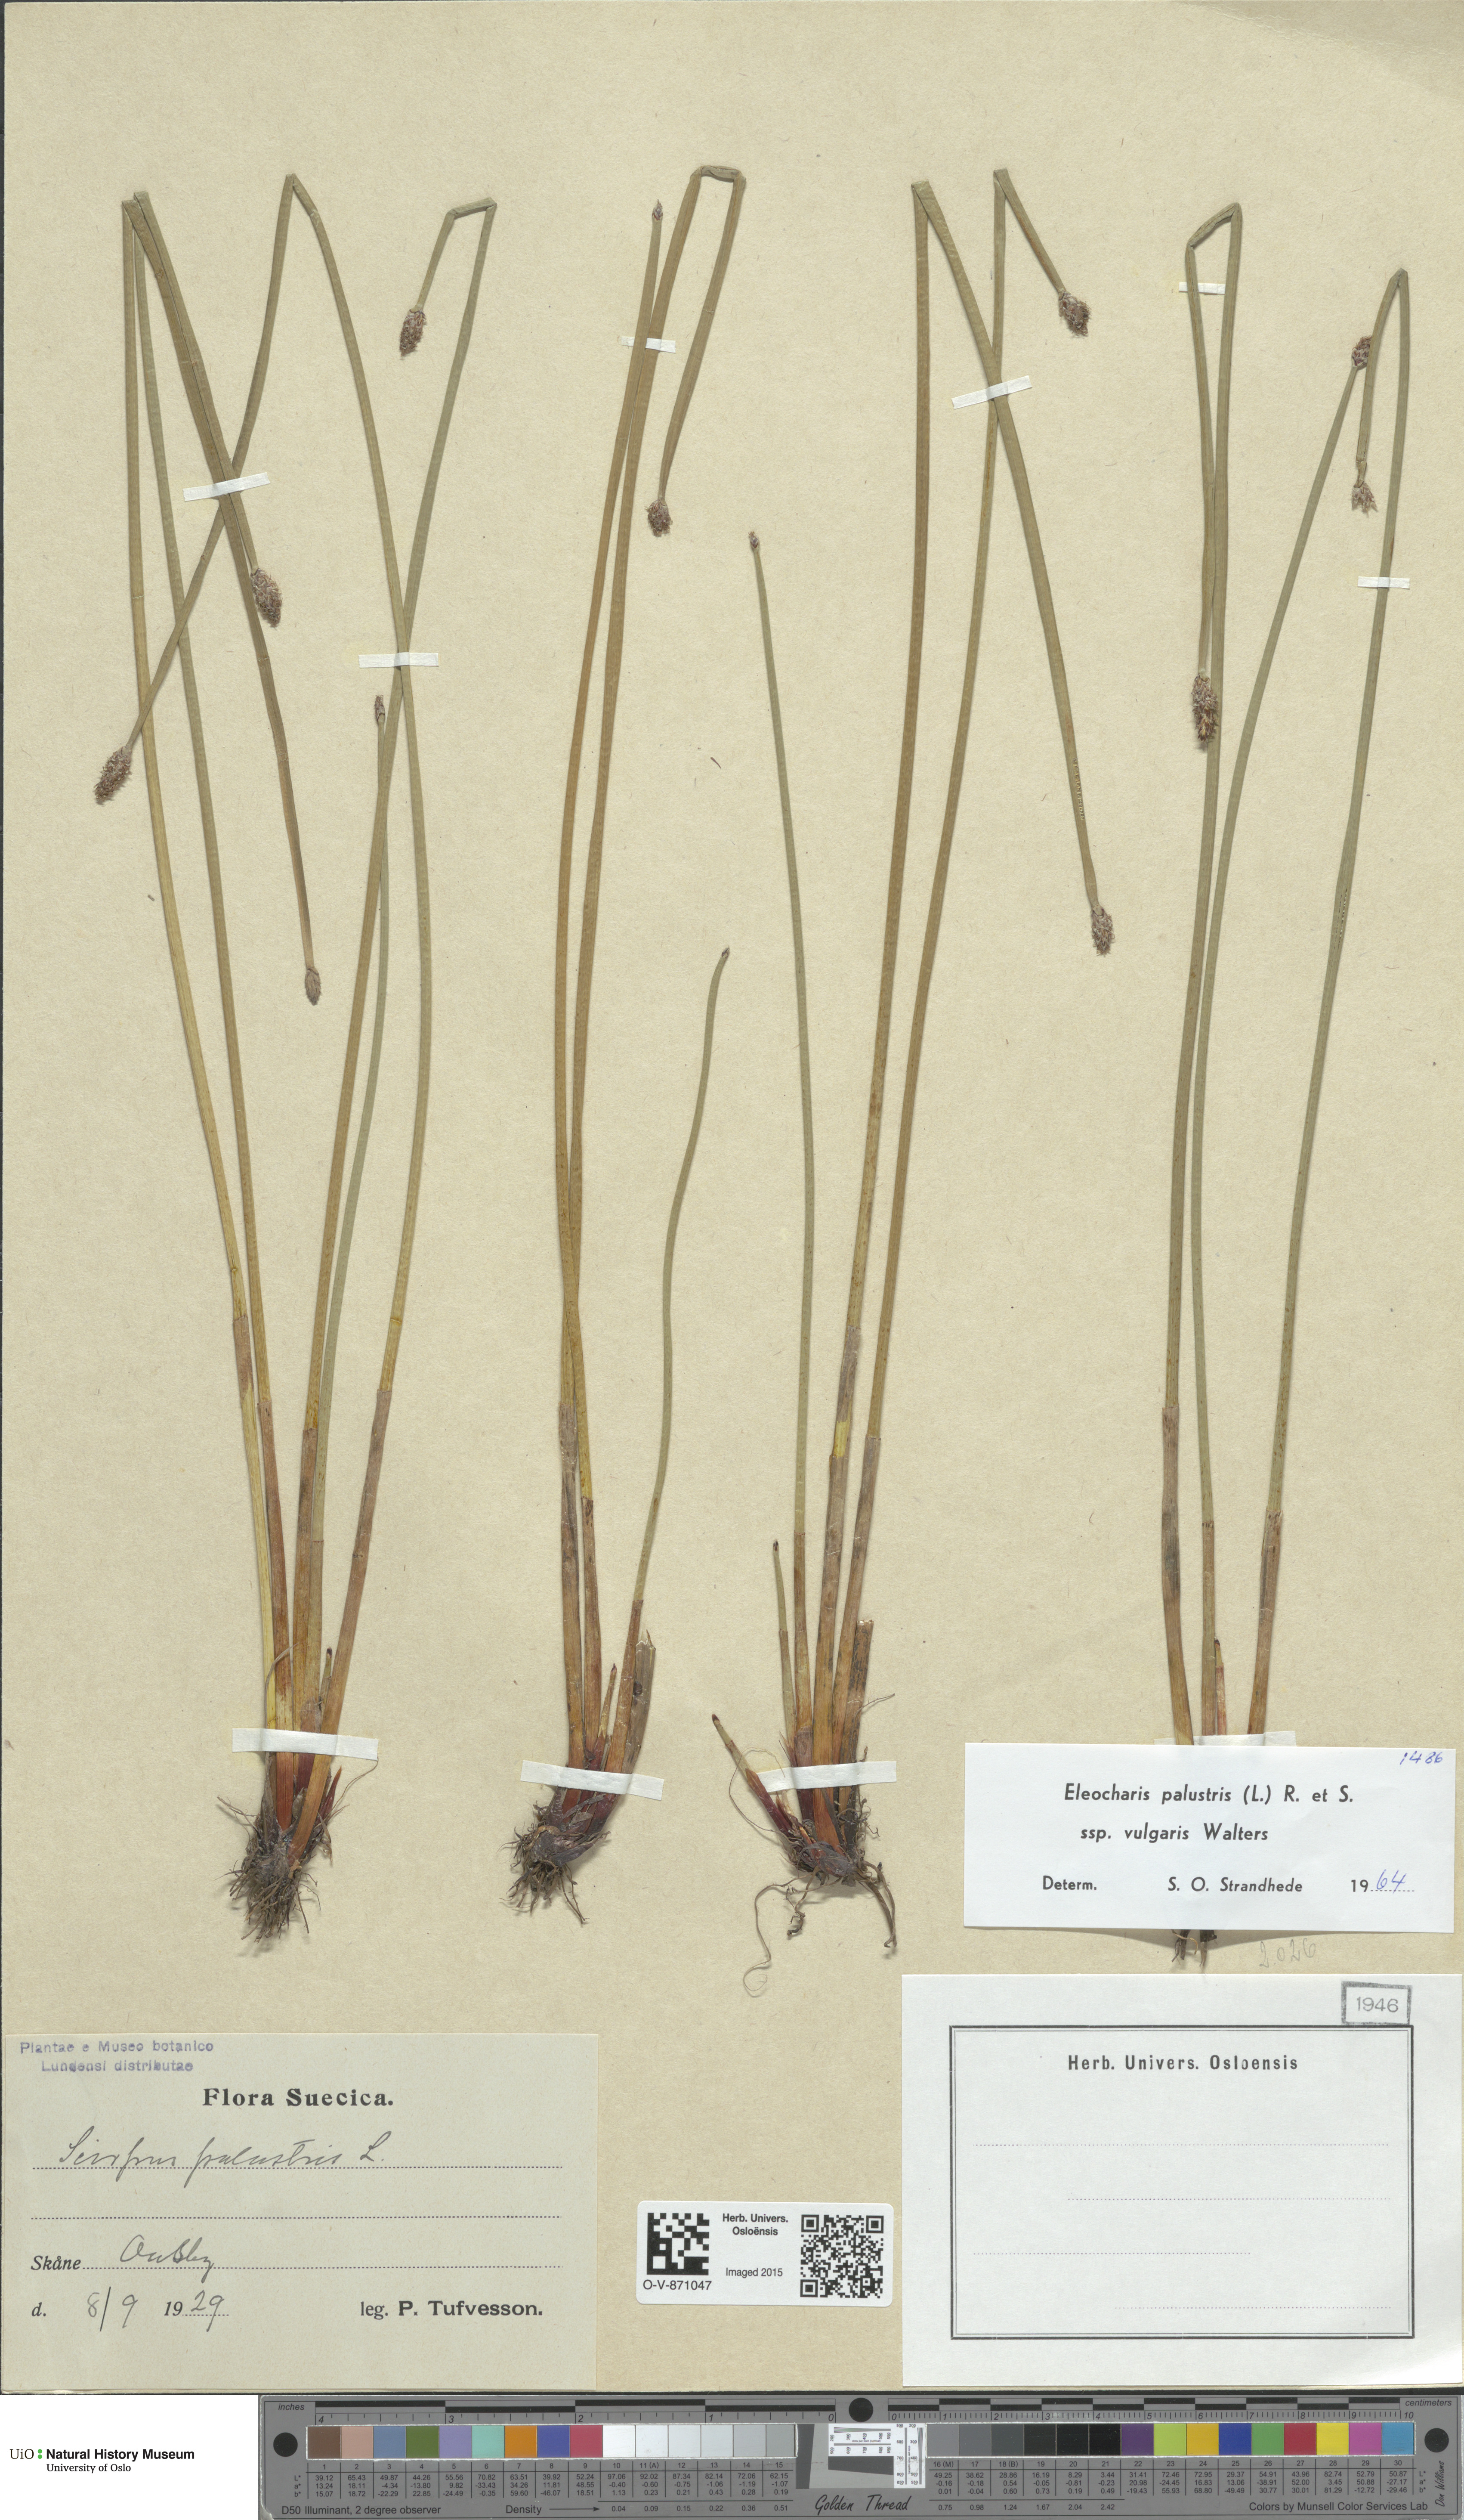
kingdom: Plantae
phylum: Tracheophyta
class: Liliopsida
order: Poales
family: Cyperaceae
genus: Eleocharis
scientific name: Eleocharis palustris
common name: Common spike-rush
